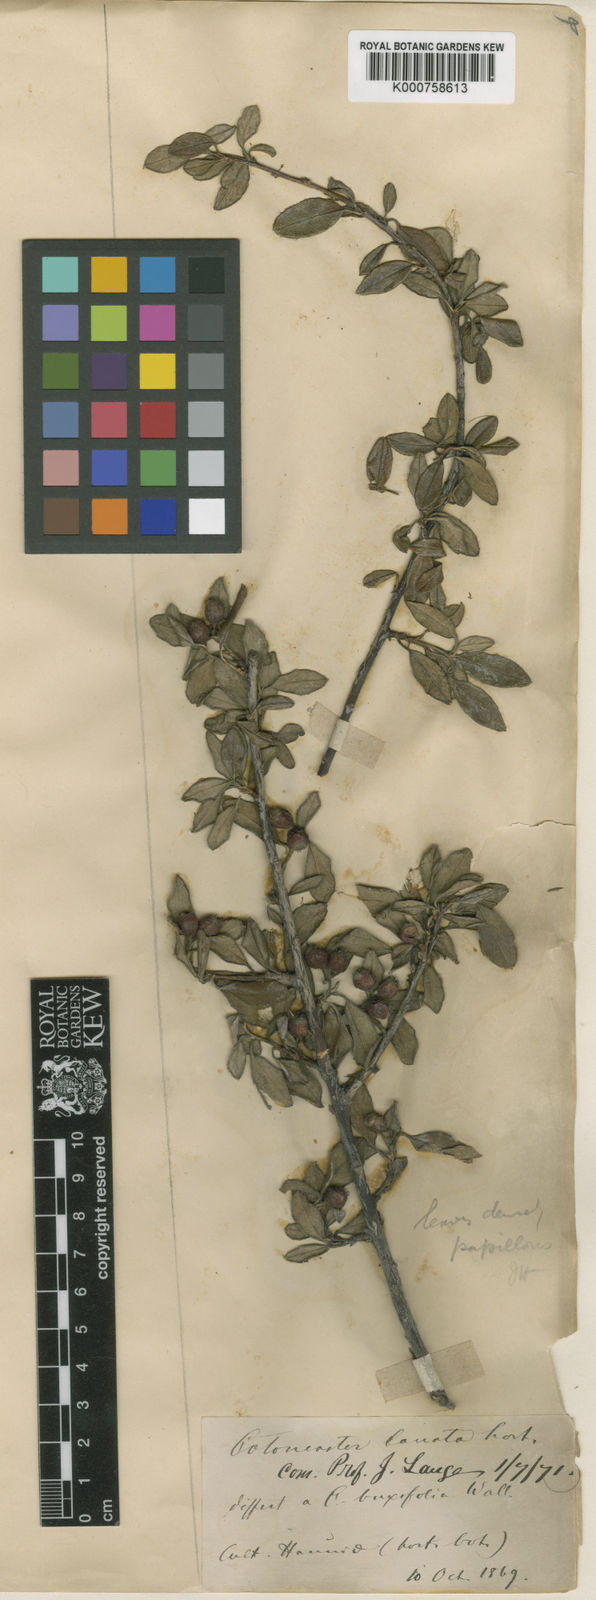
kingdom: Plantae
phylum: Tracheophyta
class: Magnoliopsida
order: Rosales
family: Rosaceae
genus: Cotoneaster
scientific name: Cotoneaster prostratus
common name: Procumbent cotoneaster
